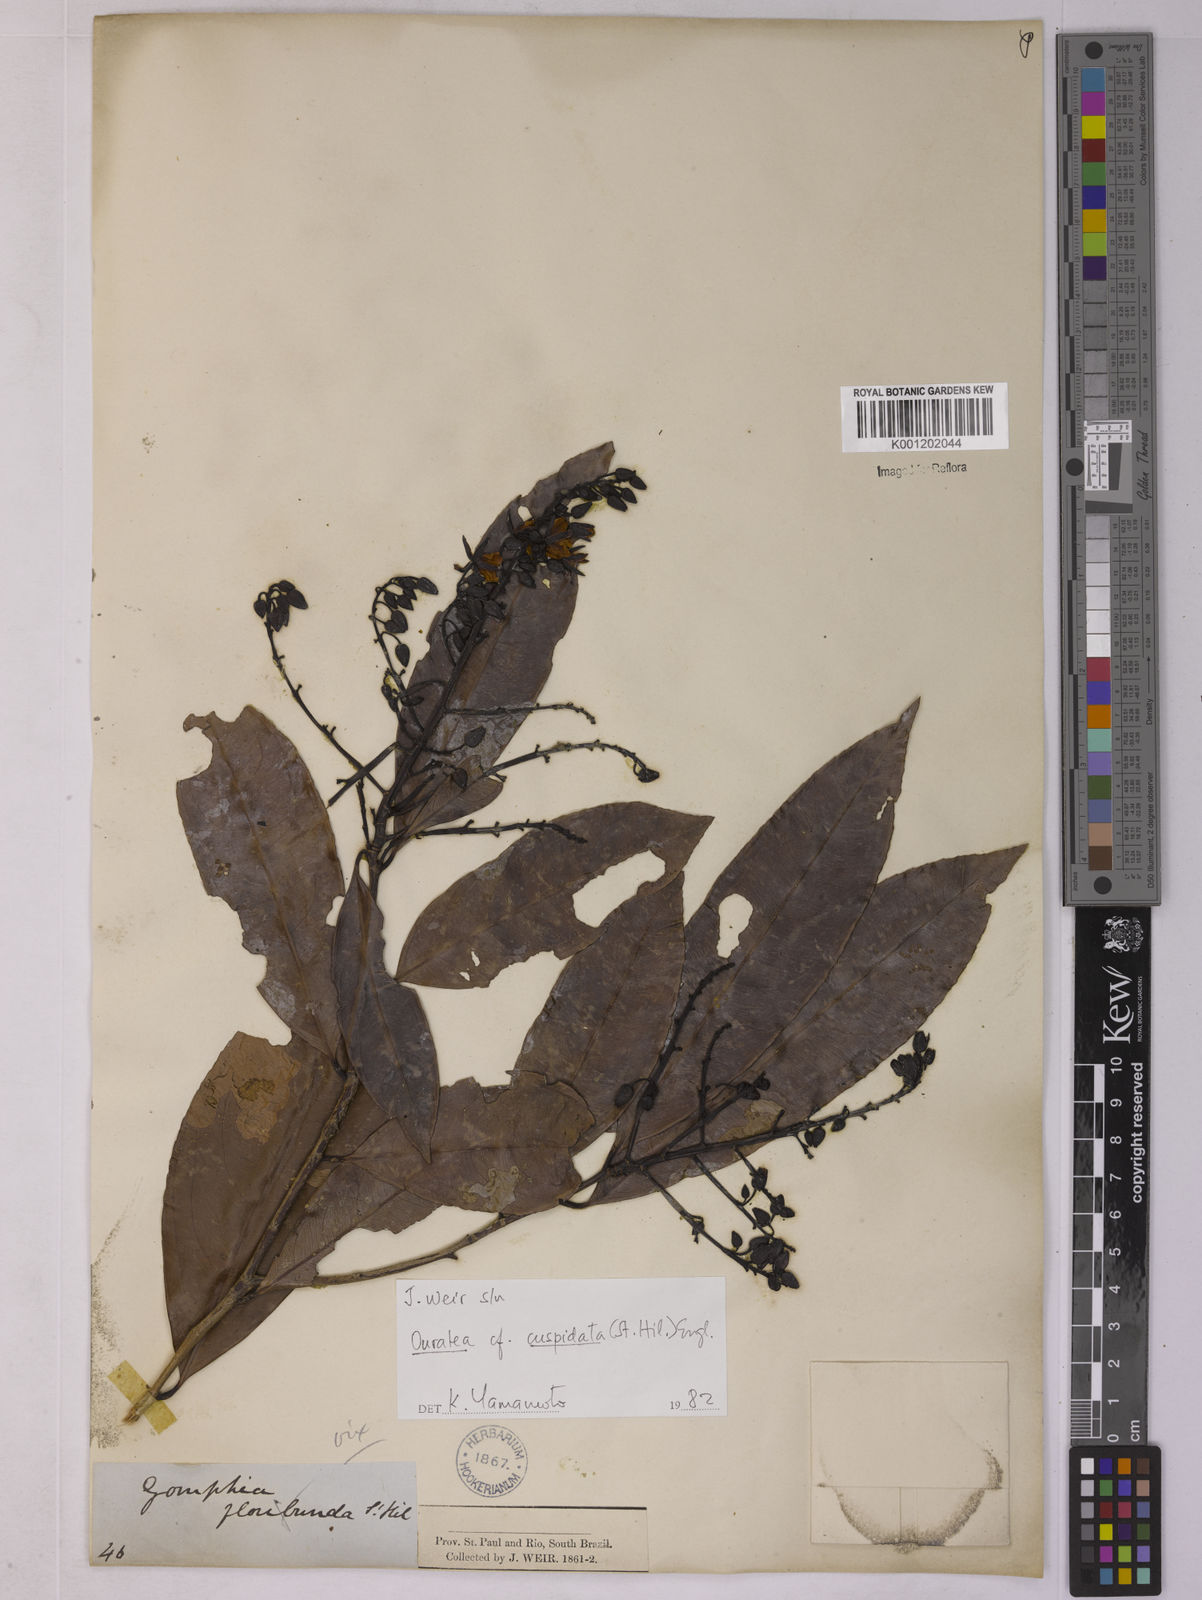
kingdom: Plantae
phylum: Tracheophyta
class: Magnoliopsida
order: Malpighiales
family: Ochnaceae
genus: Ouratea
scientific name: Ouratea cuspidata
